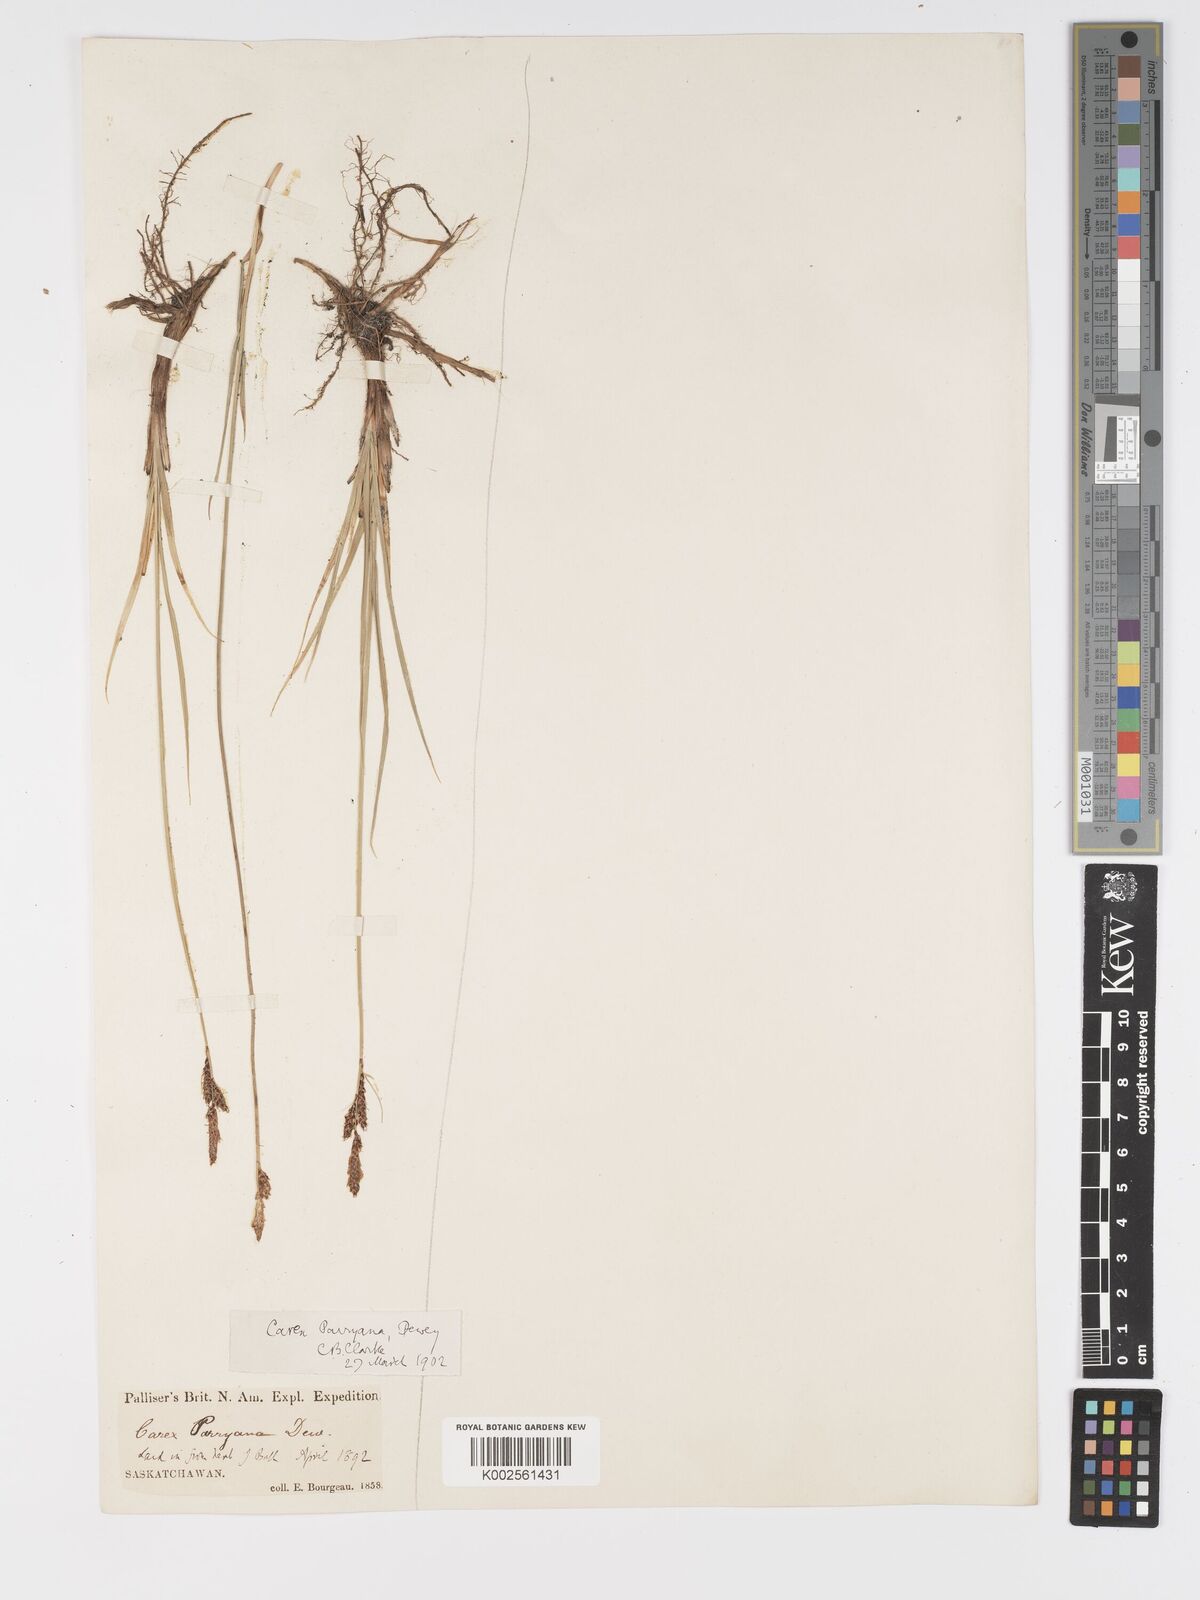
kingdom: Plantae
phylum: Tracheophyta
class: Liliopsida
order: Poales
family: Cyperaceae
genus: Carex
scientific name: Carex parryana
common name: Parry's sedge
